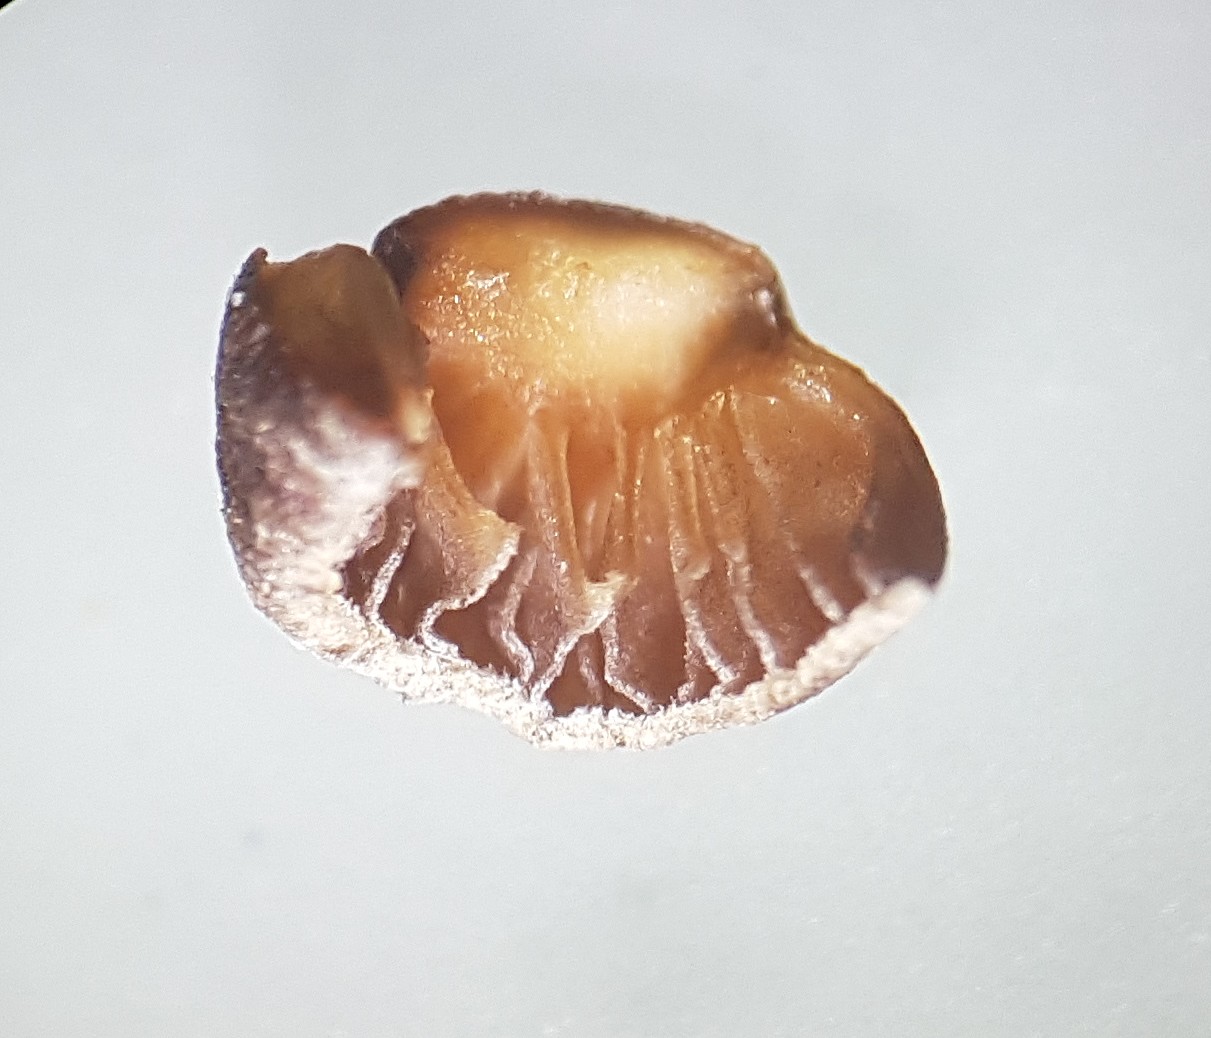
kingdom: Fungi
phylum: Basidiomycota
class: Agaricomycetes
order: Agaricales
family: Strophariaceae
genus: Deconica
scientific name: Deconica montana
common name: rødbrun stråhat
